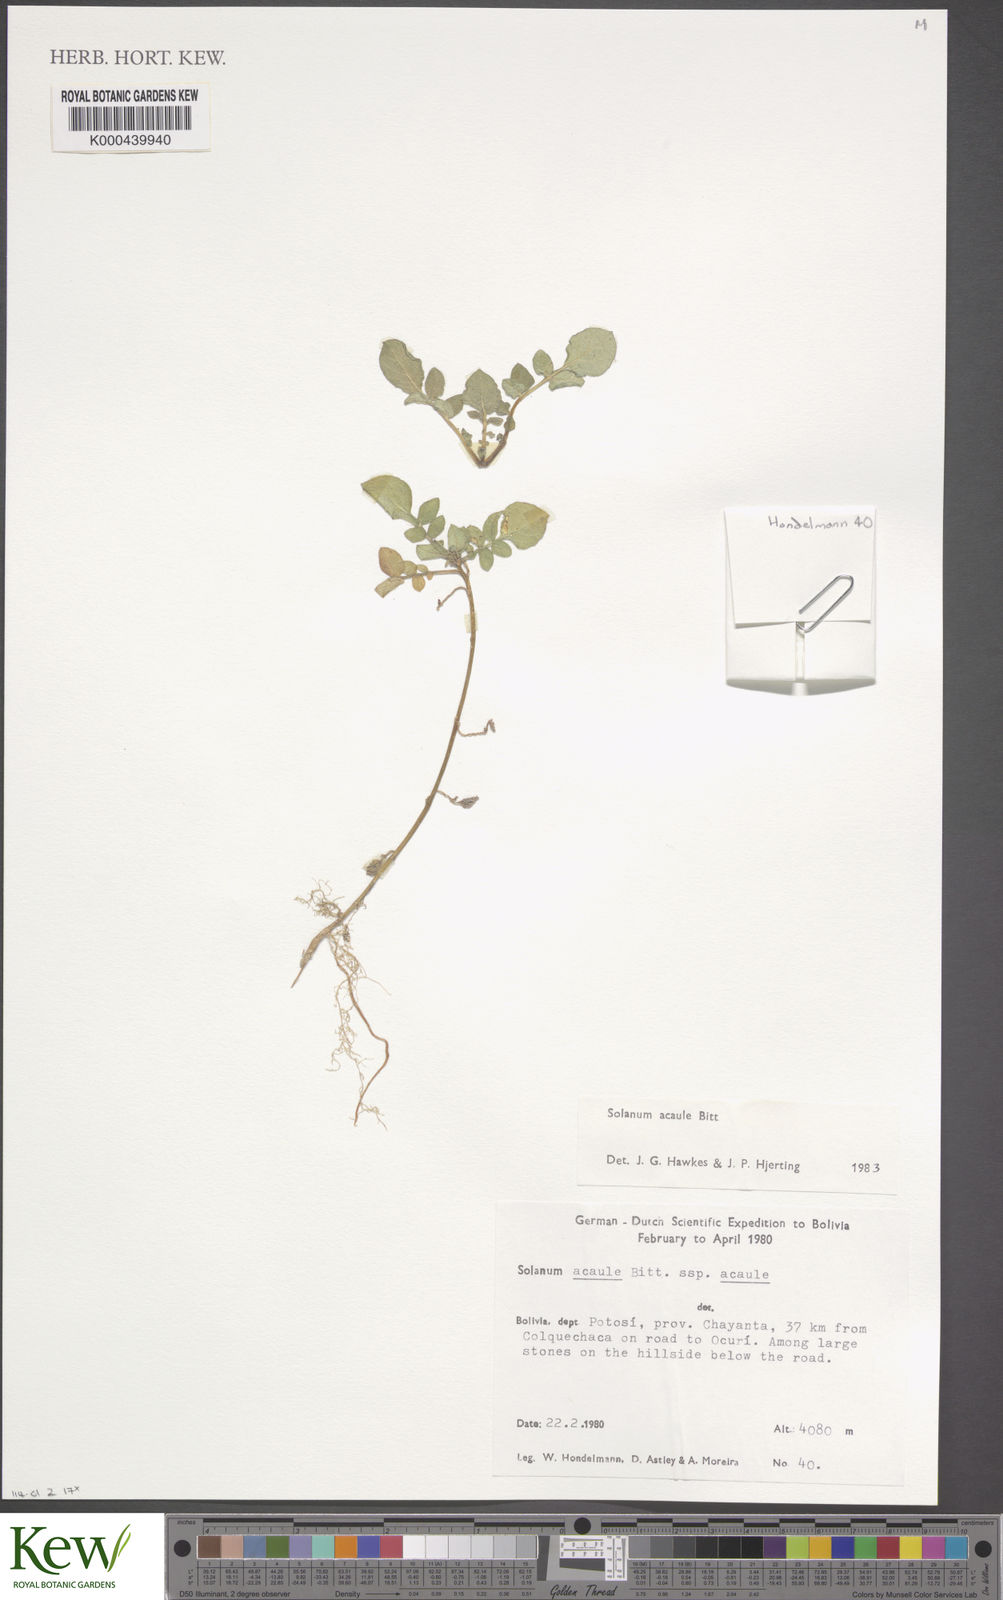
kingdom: Plantae
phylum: Tracheophyta
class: Magnoliopsida
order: Solanales
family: Solanaceae
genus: Solanum
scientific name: Solanum acaule
